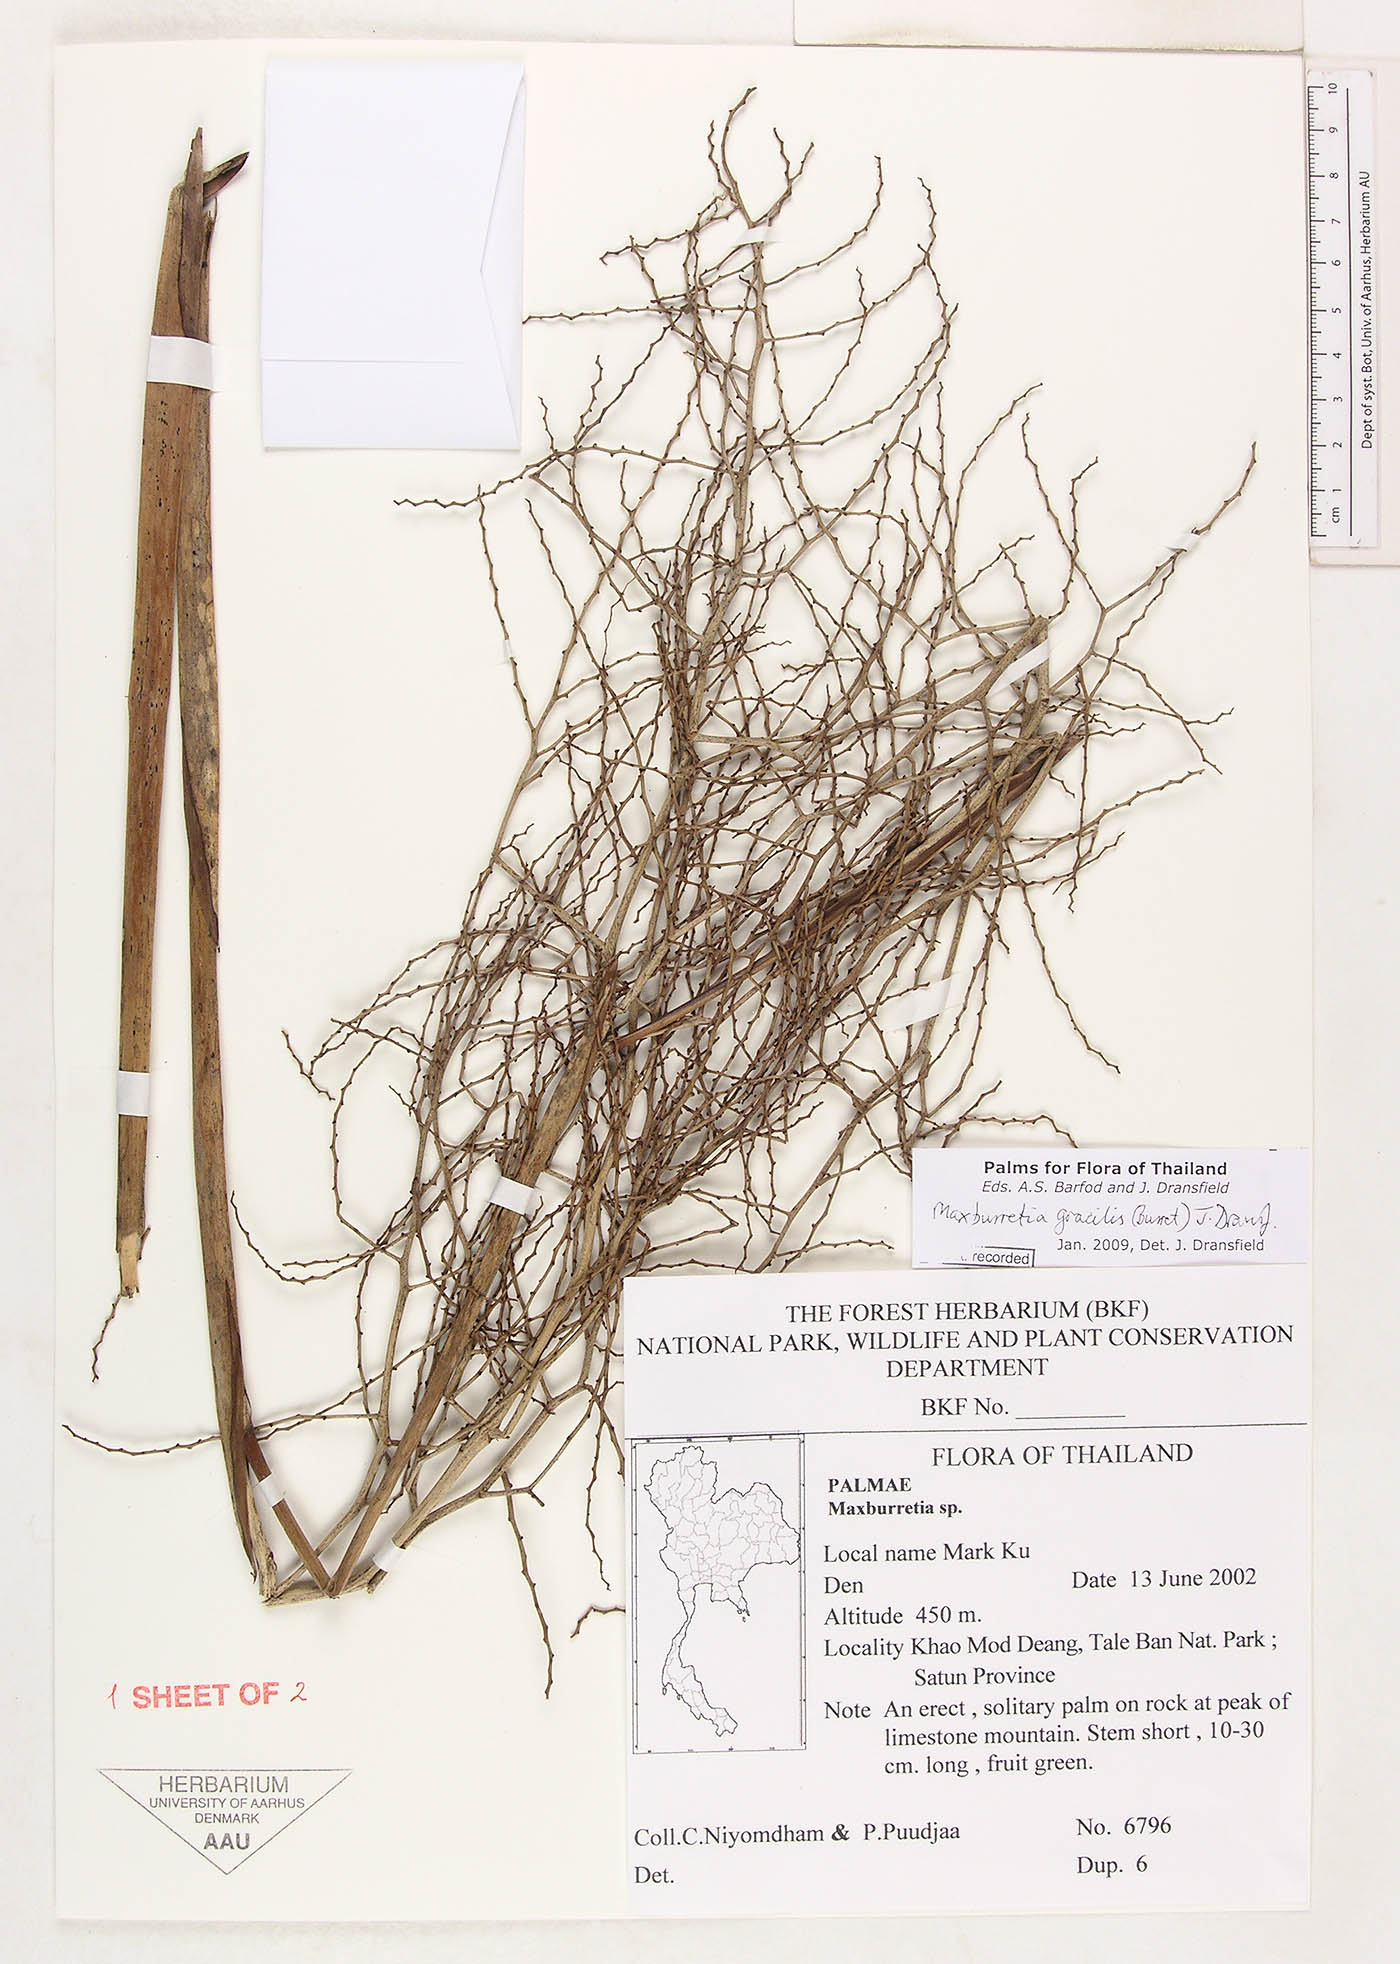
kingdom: Plantae
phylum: Tracheophyta
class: Liliopsida
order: Arecales
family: Arecaceae
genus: Maxburretia
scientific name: Maxburretia gracilis
